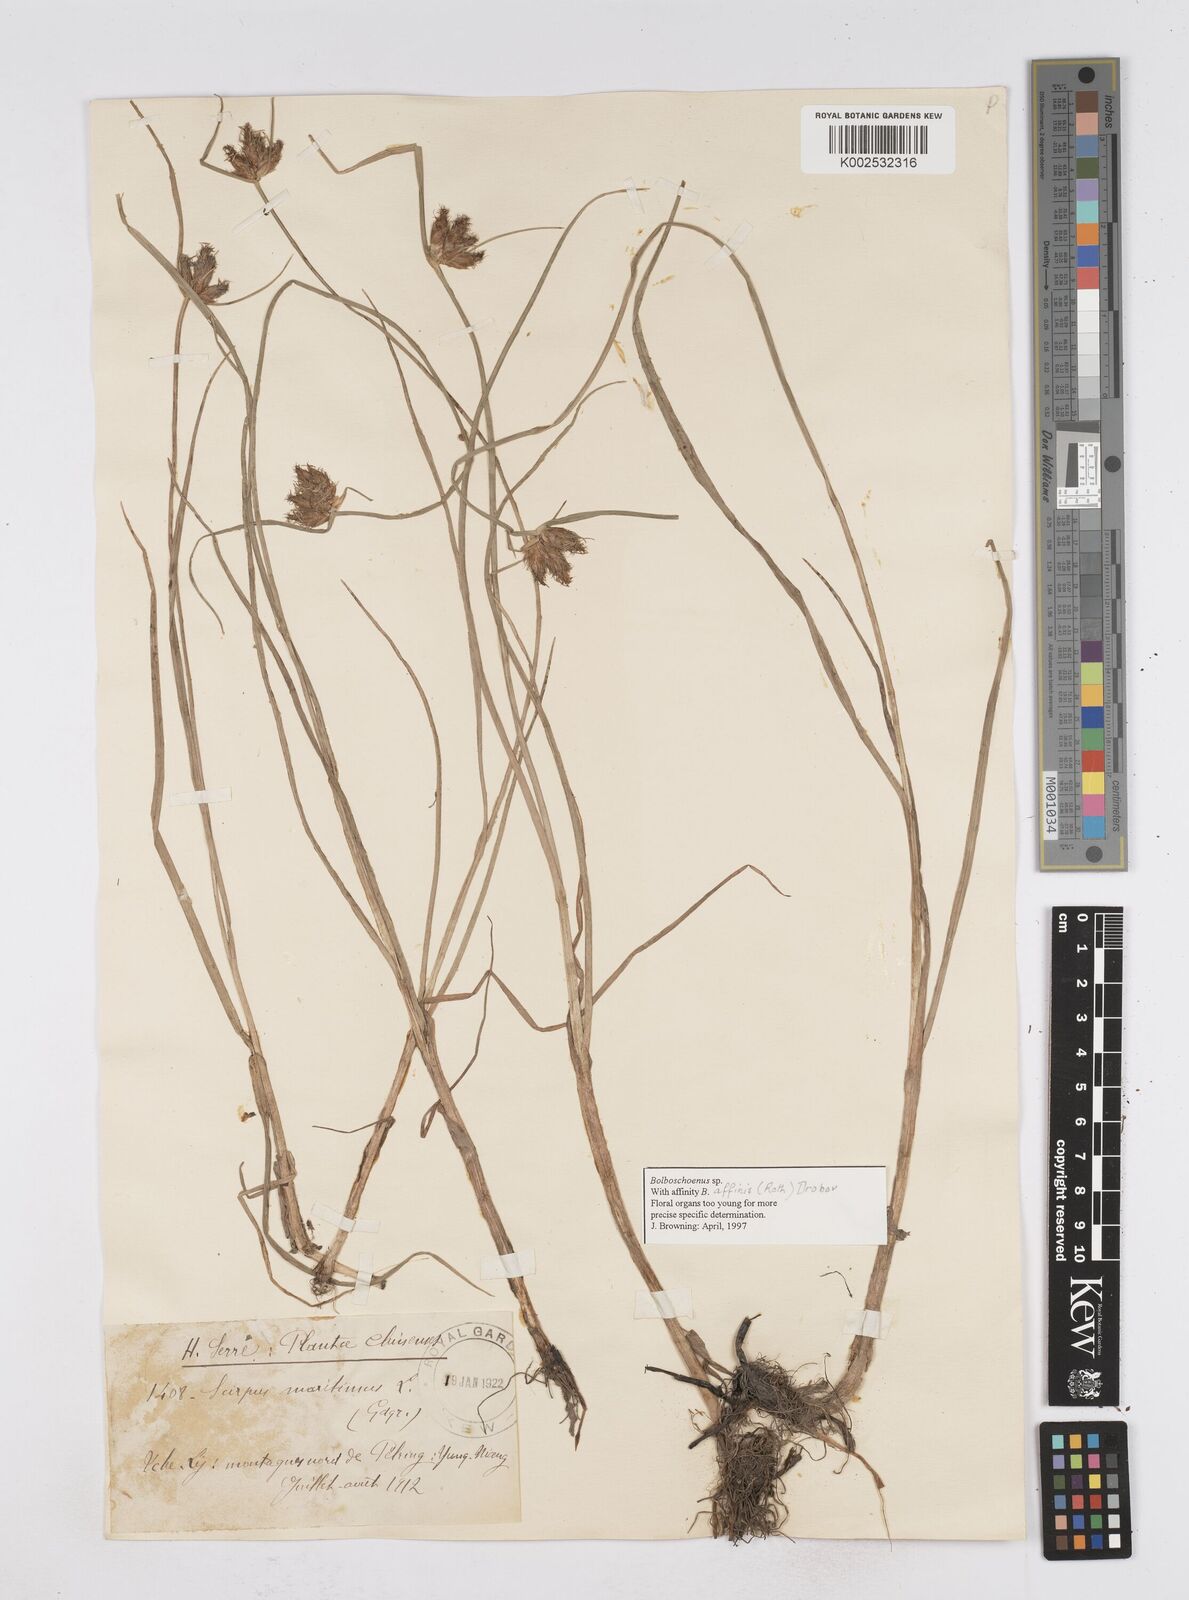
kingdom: Plantae
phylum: Tracheophyta
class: Liliopsida
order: Poales
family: Cyperaceae
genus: Bolboschoenus
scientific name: Bolboschoenus maritimus
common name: Sea club-rush
